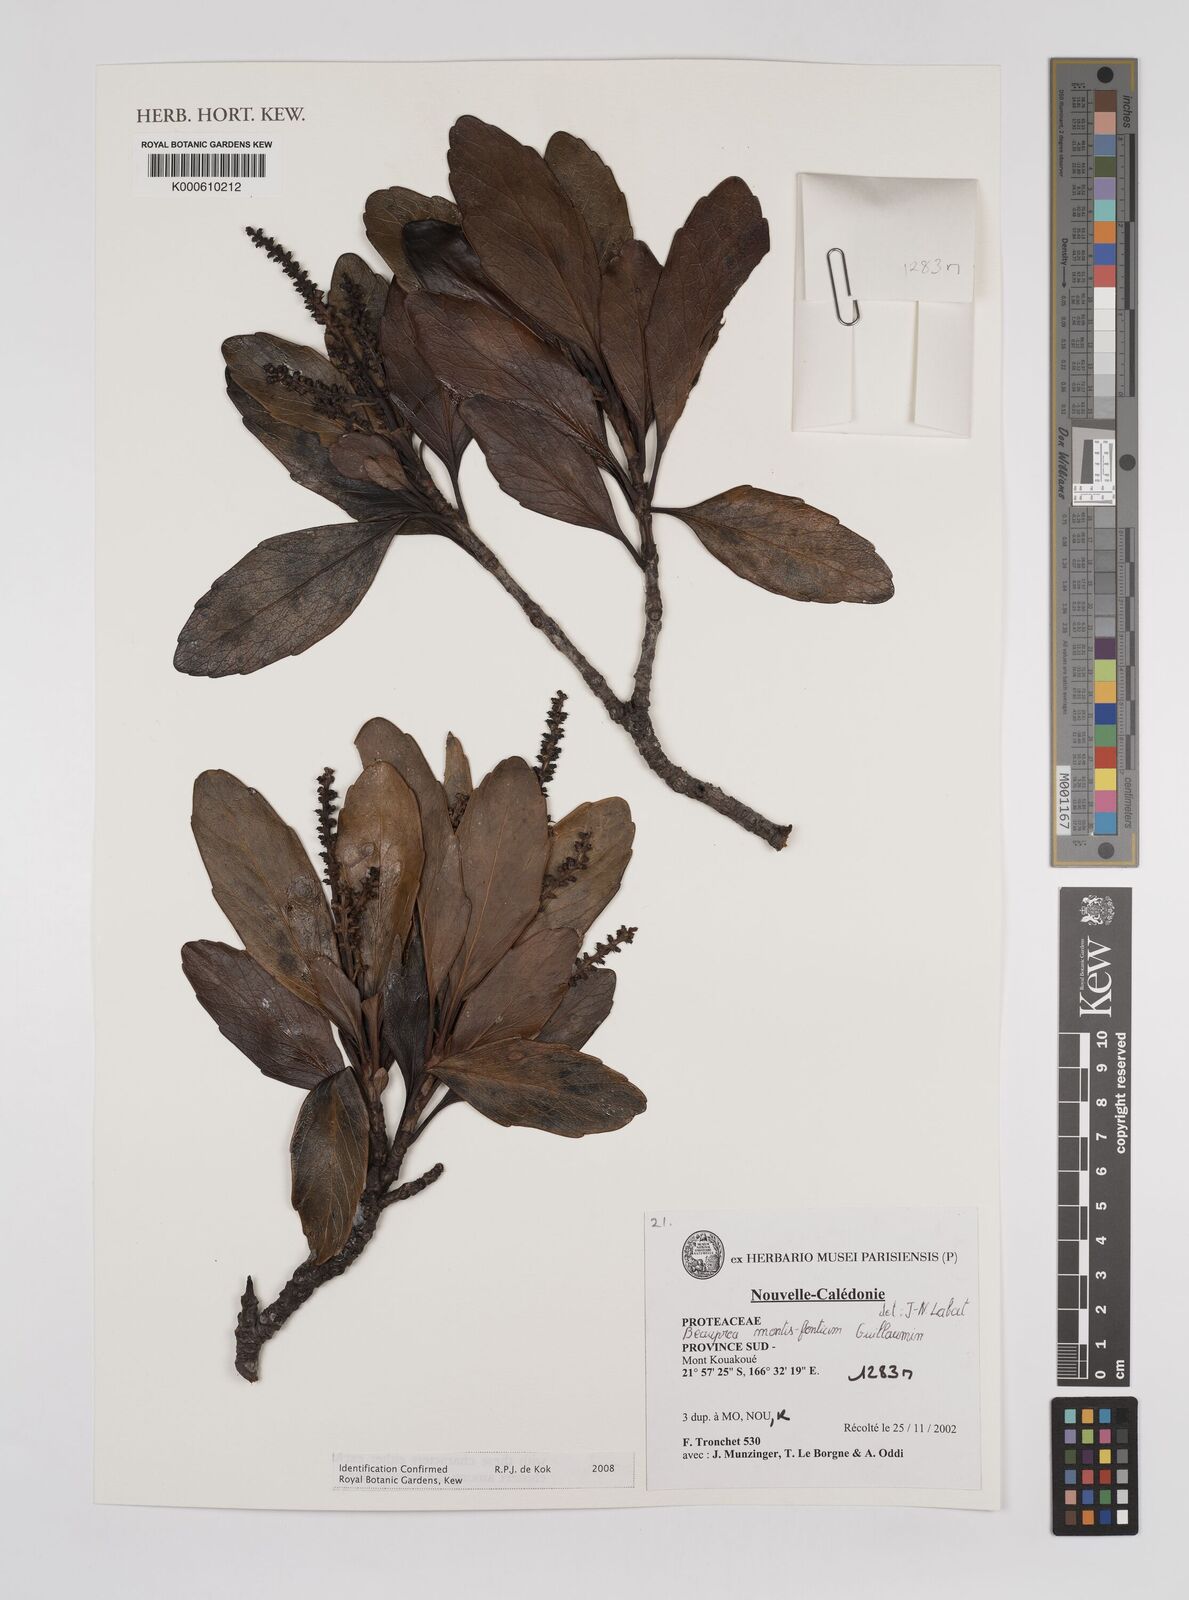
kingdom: Plantae
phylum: Tracheophyta
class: Magnoliopsida
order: Proteales
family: Proteaceae
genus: Beauprea
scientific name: Beauprea
